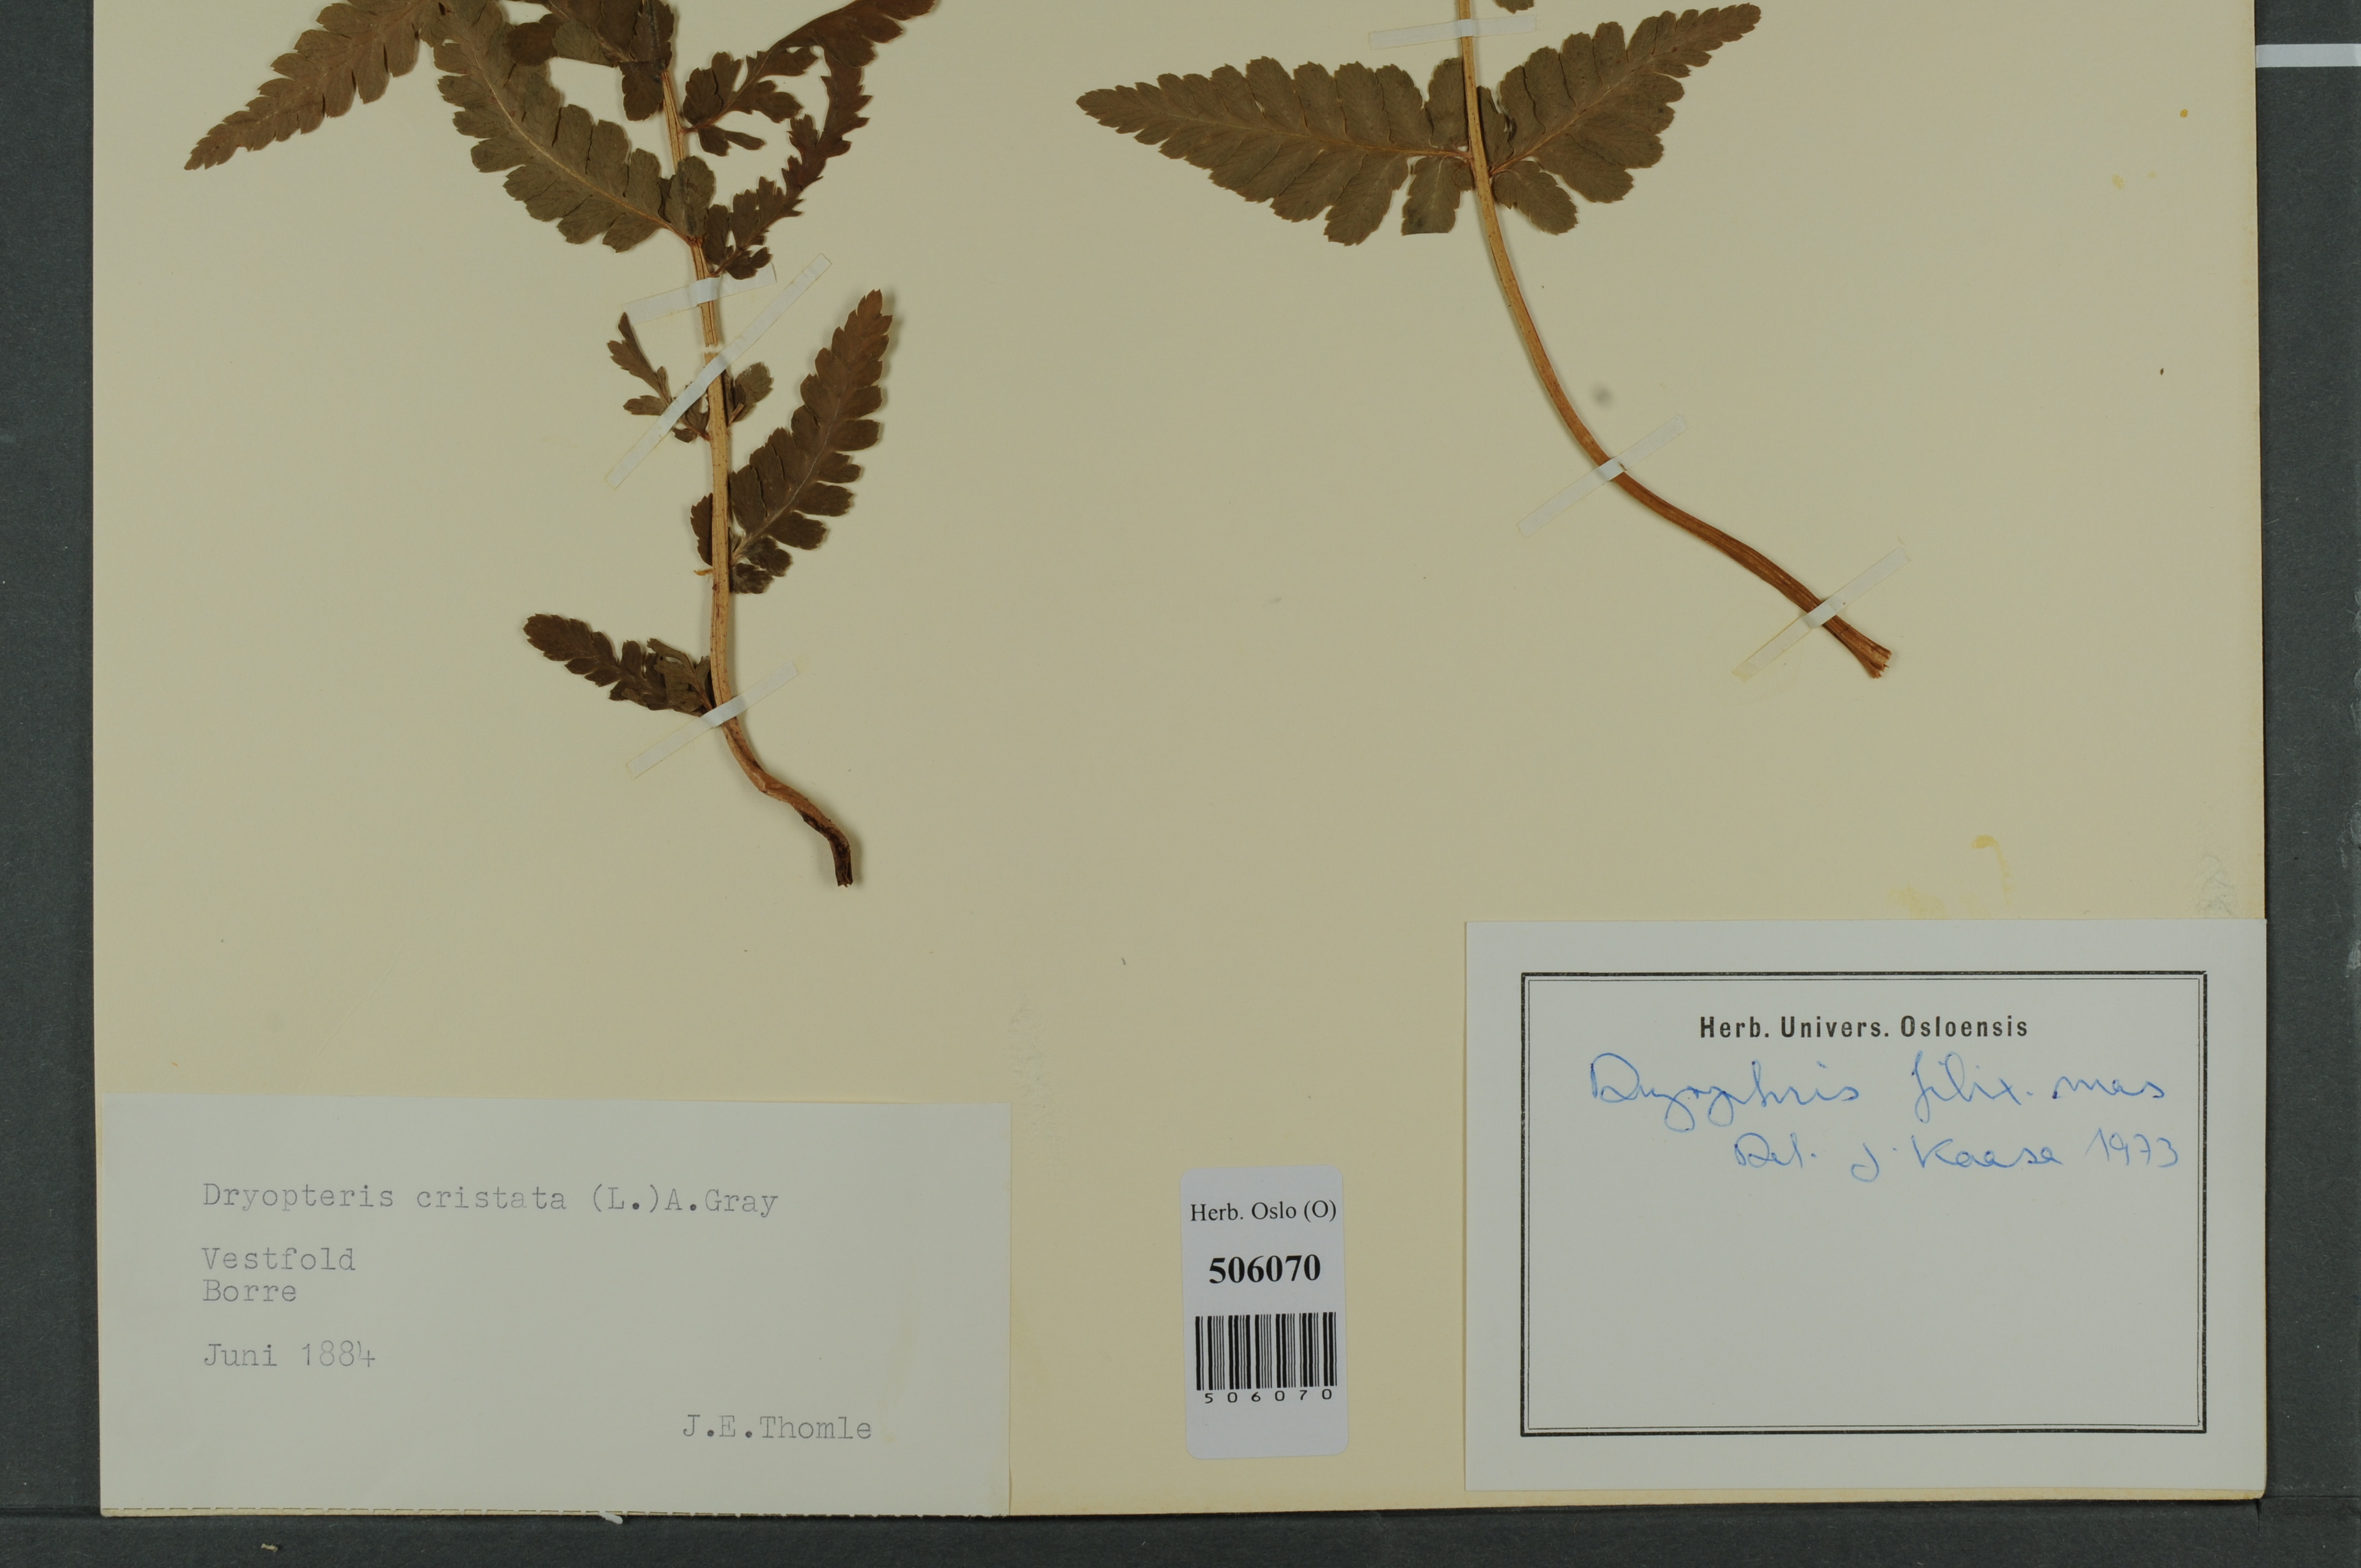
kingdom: Plantae
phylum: Tracheophyta
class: Polypodiopsida
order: Polypodiales
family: Dryopteridaceae
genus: Dryopteris
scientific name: Dryopteris filix-mas
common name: Male fern
